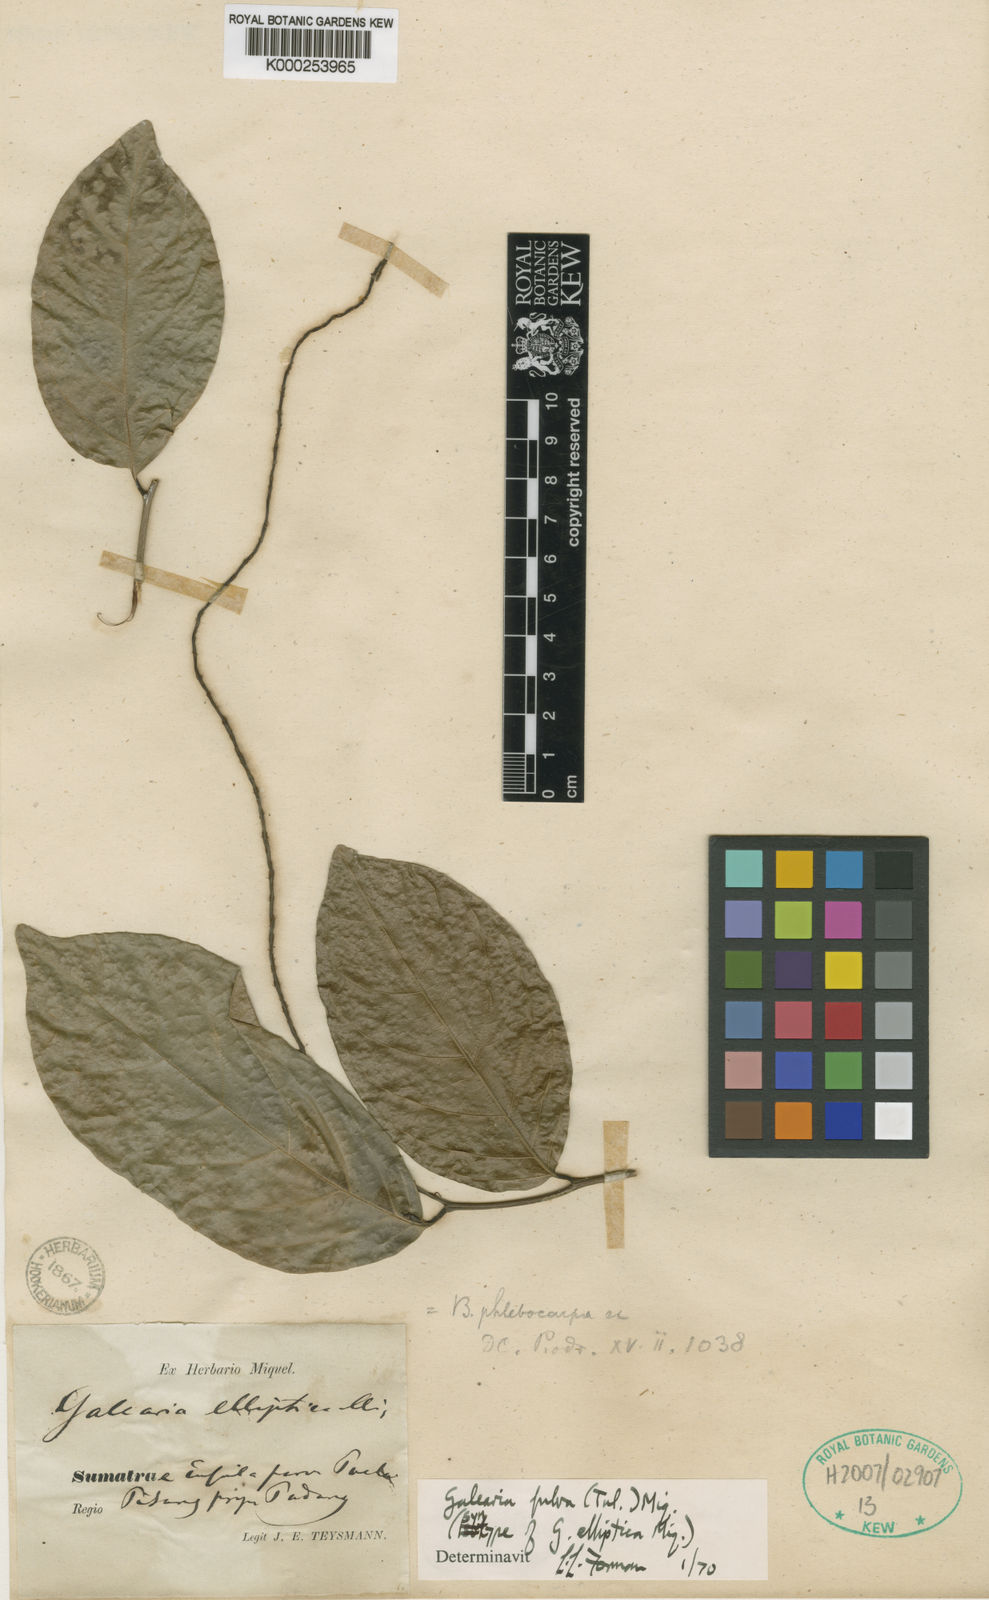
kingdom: Plantae
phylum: Tracheophyta
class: Magnoliopsida
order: Malpighiales
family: Pandaceae
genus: Galearia
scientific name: Galearia fulva
